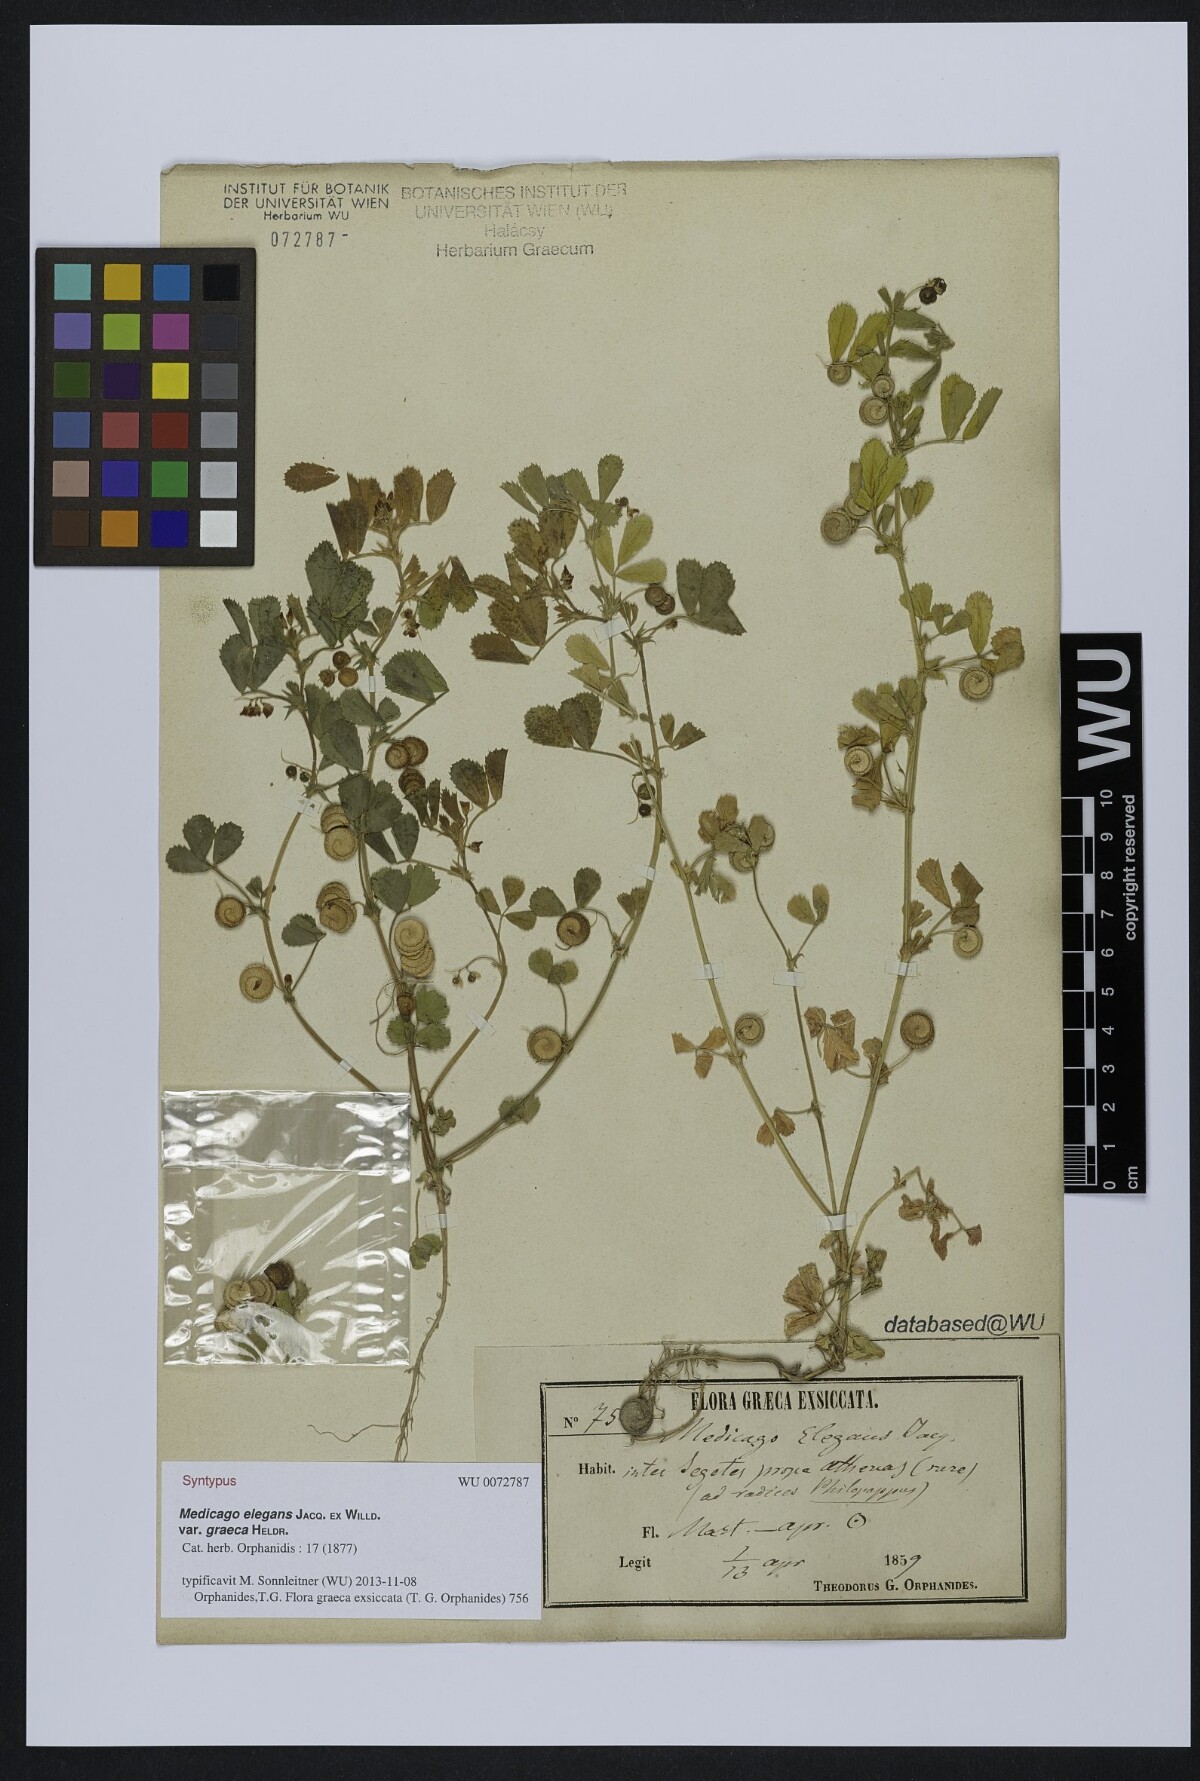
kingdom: Plantae
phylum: Tracheophyta
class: Magnoliopsida
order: Fabales
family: Fabaceae
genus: Medicago
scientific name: Medicago rugosa
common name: Gama medic
